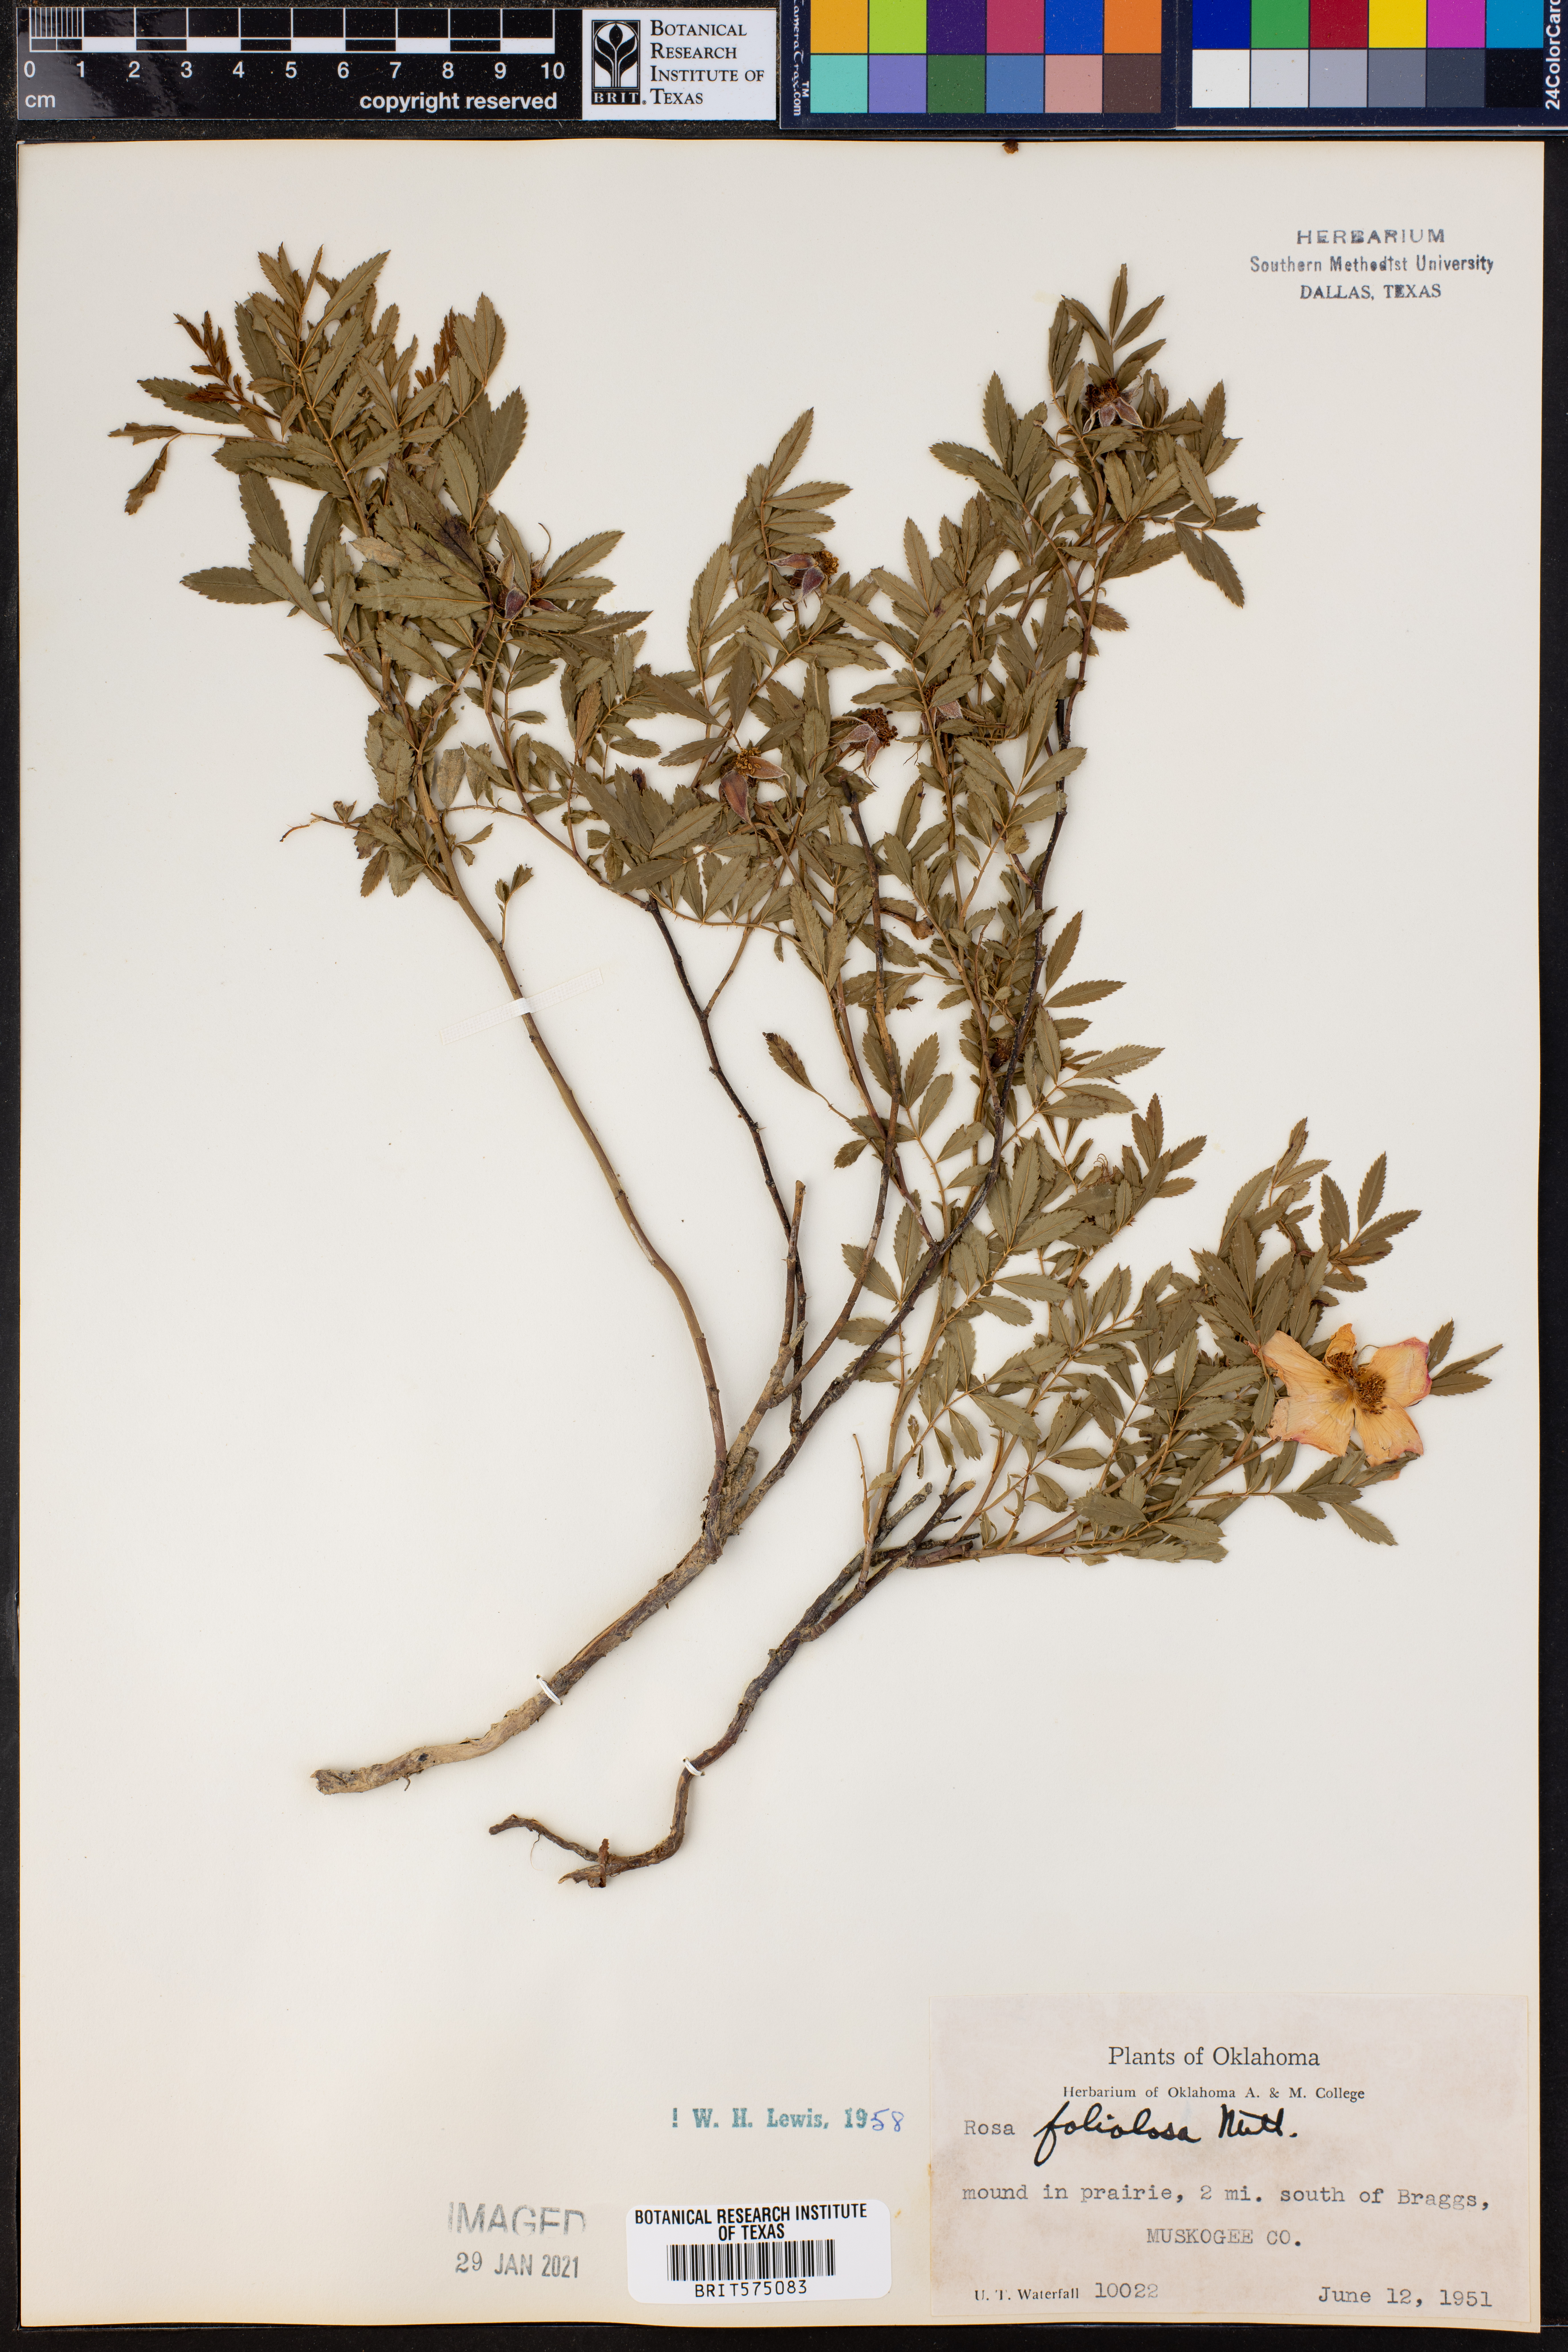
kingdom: Plantae
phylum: Tracheophyta
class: Magnoliopsida
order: Rosales
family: Rosaceae
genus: Rosa
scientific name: Rosa foliolosa
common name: White prairie rose
